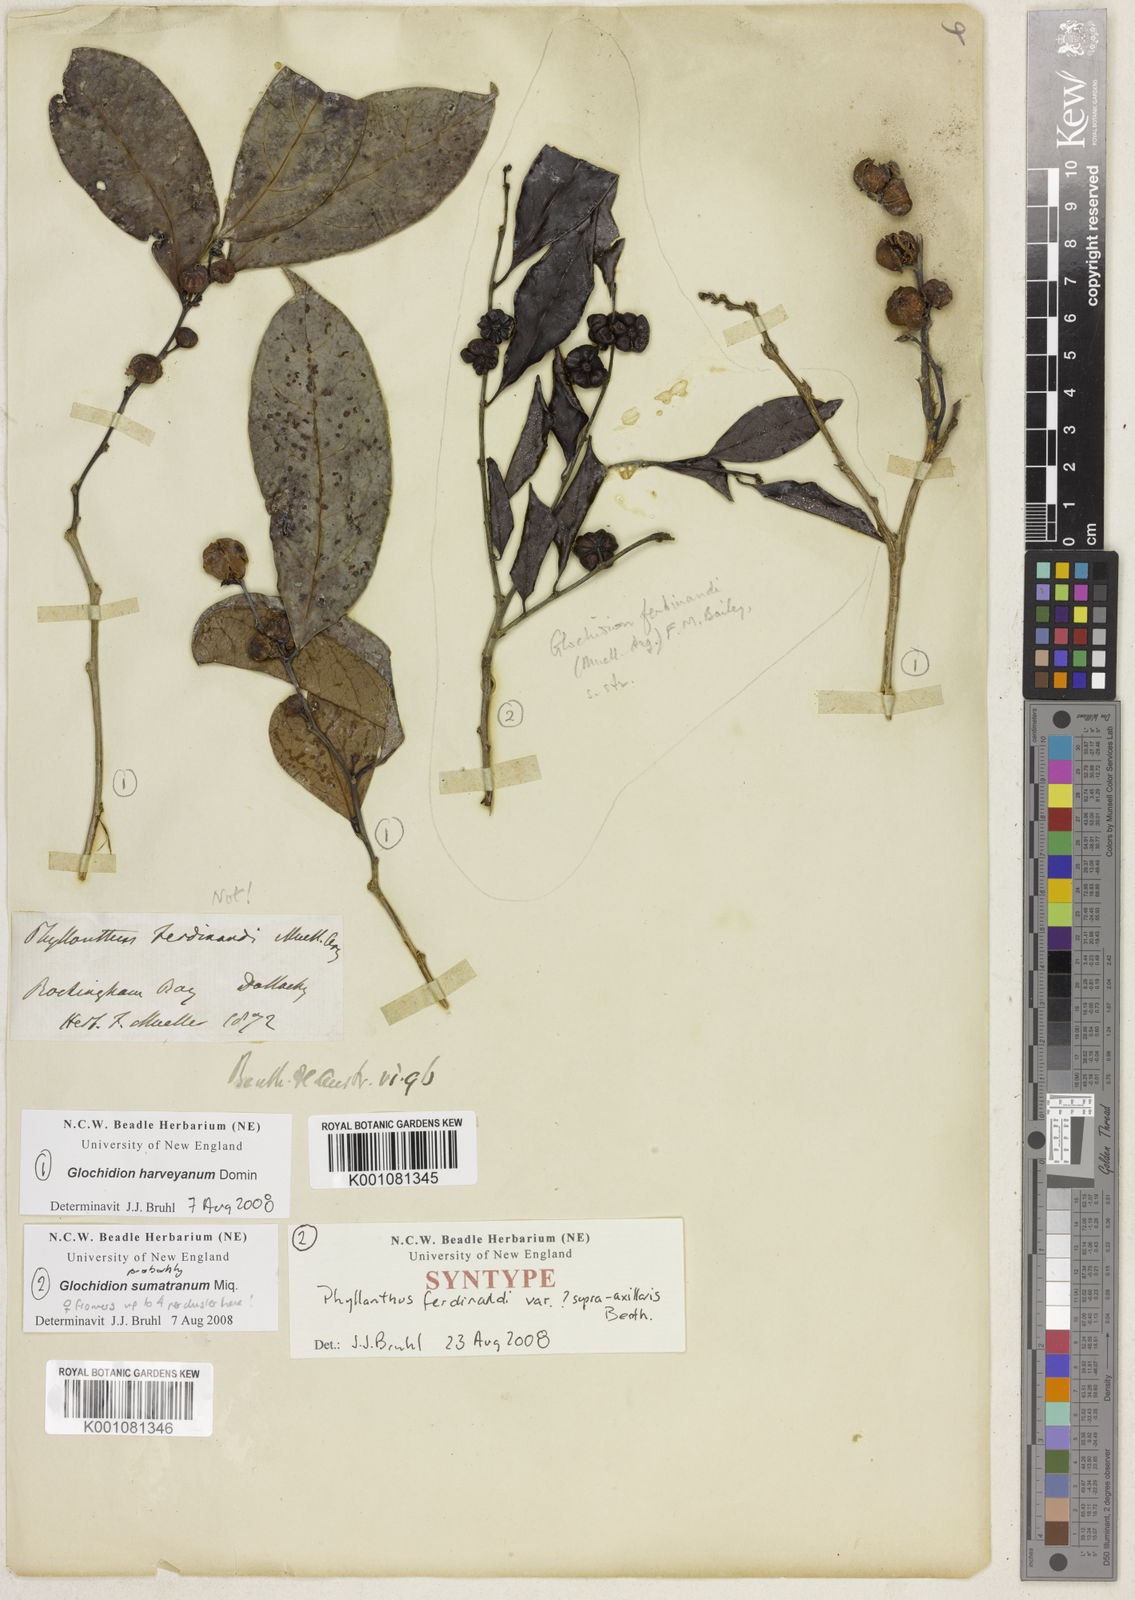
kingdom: Plantae
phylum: Tracheophyta
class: Magnoliopsida
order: Malpighiales
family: Phyllanthaceae
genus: Glochidion
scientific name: Glochidion zeylanicum
